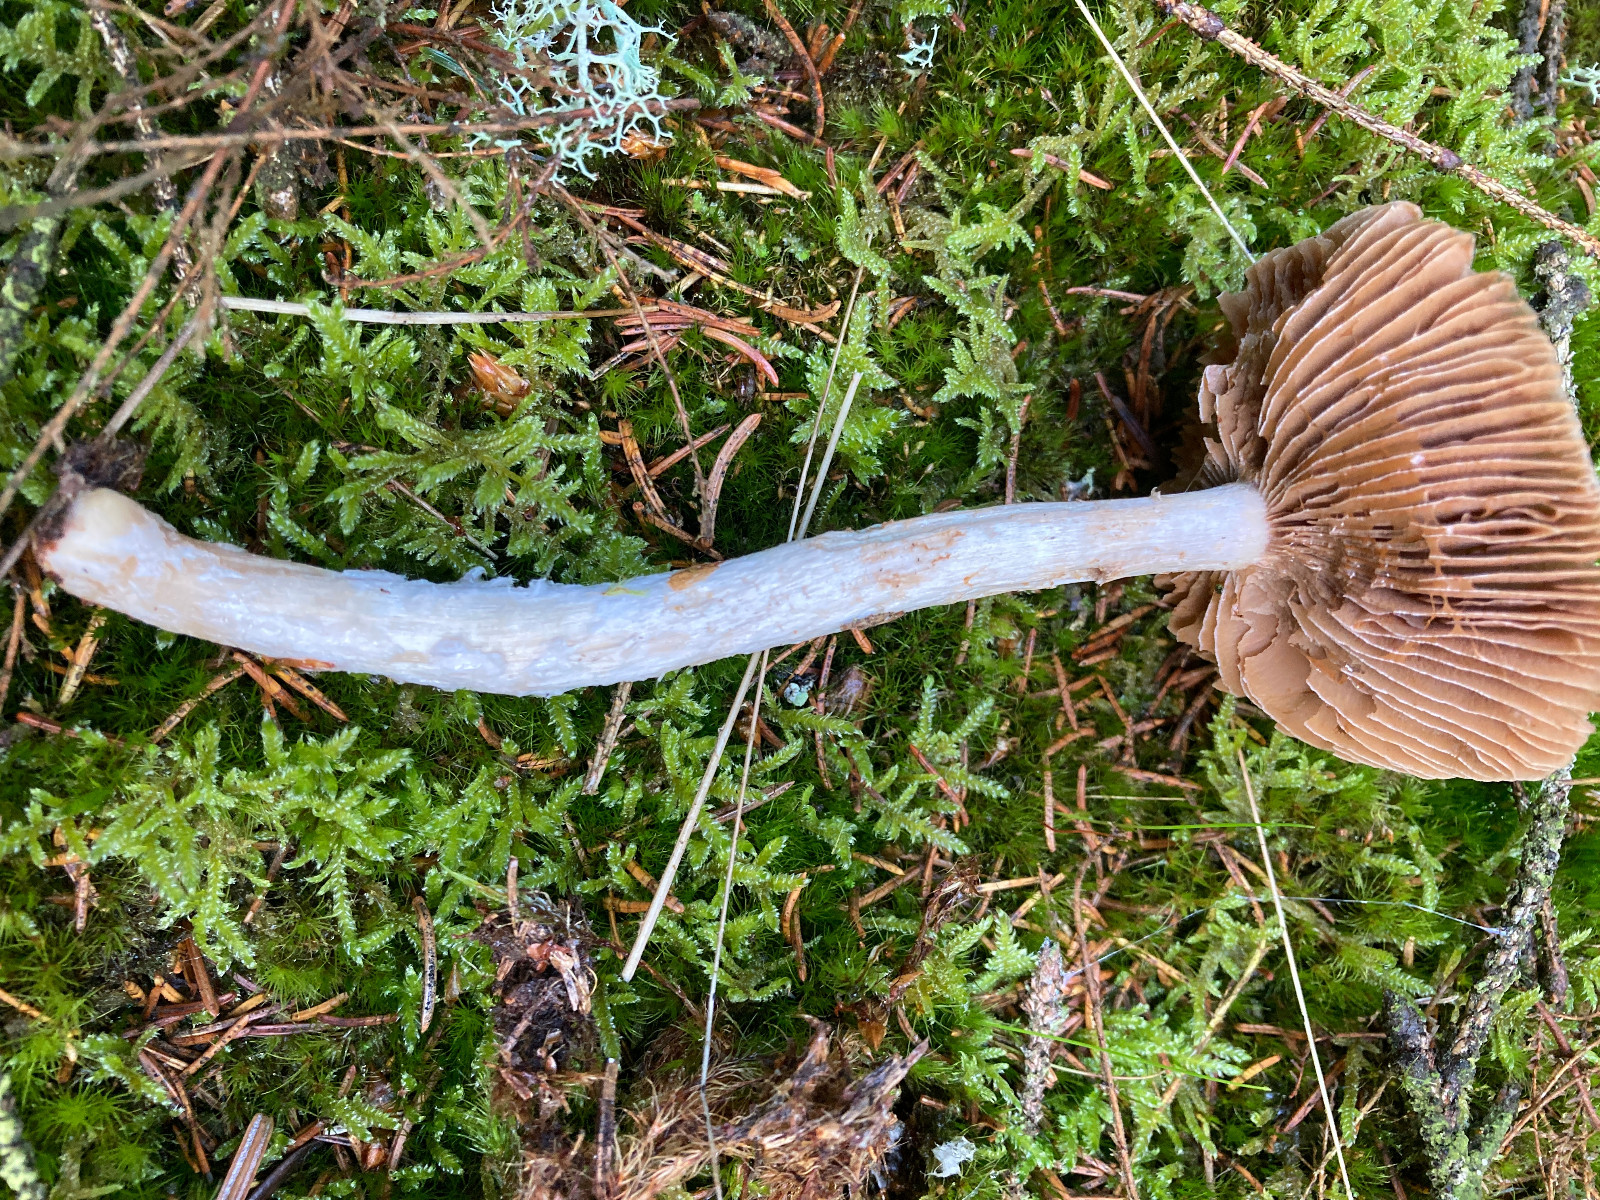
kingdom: Fungi
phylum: Basidiomycota
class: Agaricomycetes
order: Agaricales
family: Cortinariaceae
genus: Cortinarius
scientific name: Cortinarius
